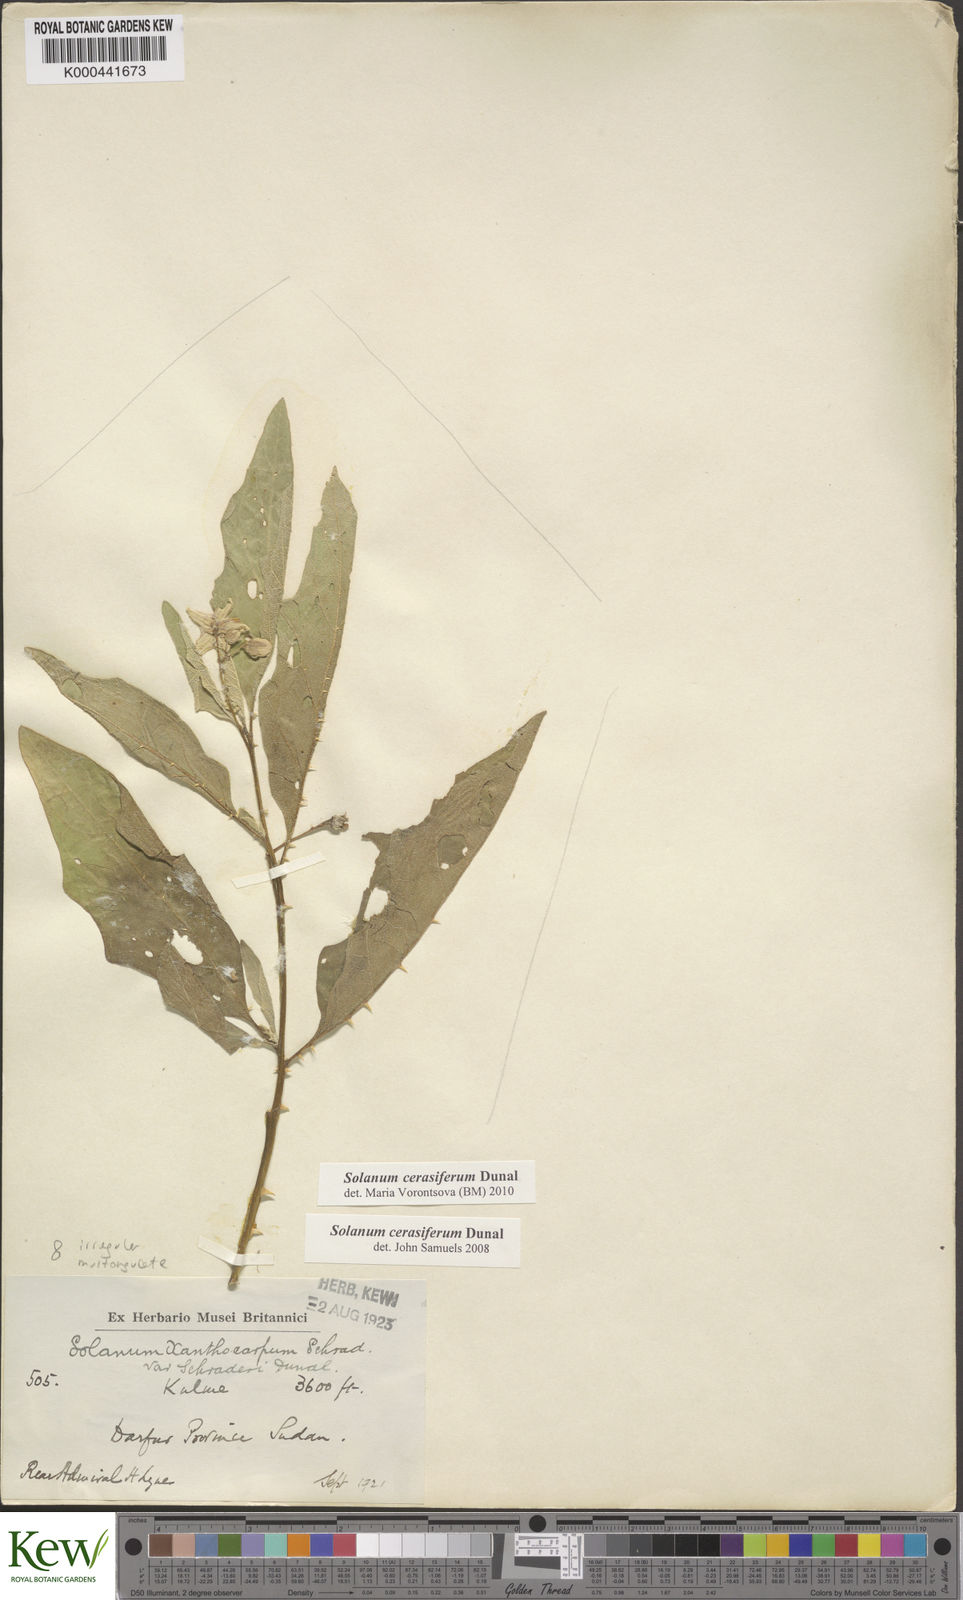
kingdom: Plantae
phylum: Tracheophyta
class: Magnoliopsida
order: Solanales
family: Solanaceae
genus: Solanum
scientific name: Solanum cerasiferum
